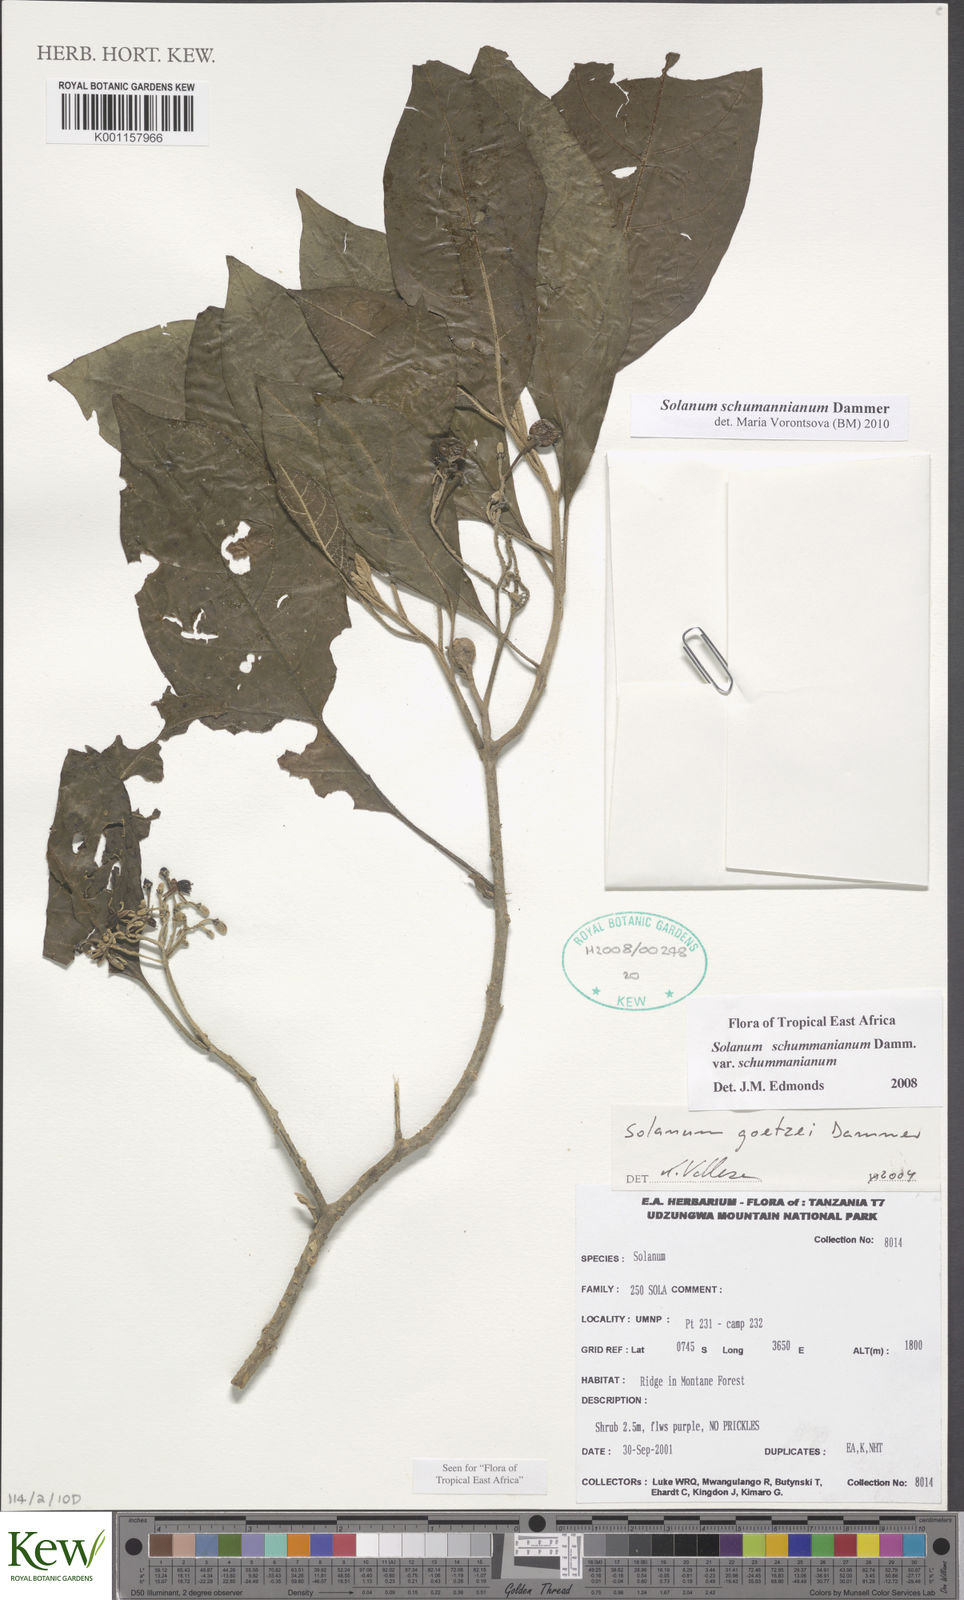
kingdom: Plantae
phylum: Tracheophyta
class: Magnoliopsida
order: Solanales
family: Solanaceae
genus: Solanum
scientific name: Solanum schumannianum
